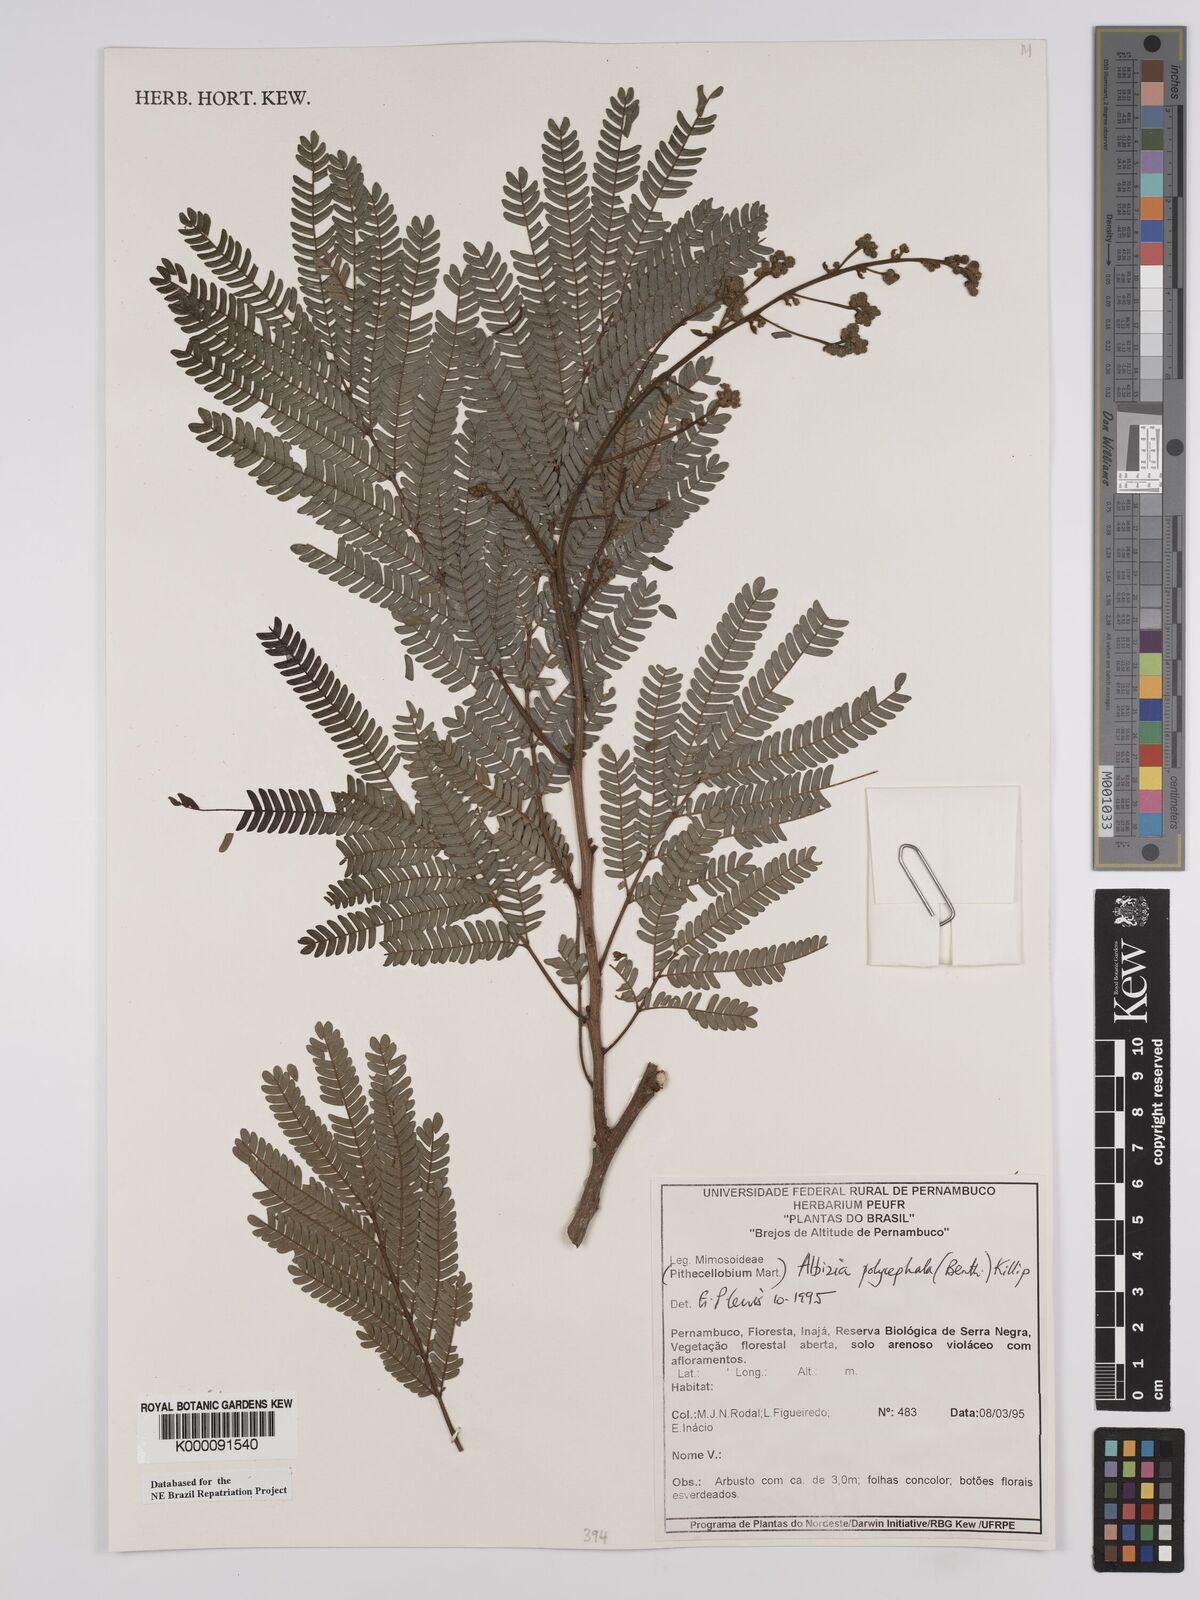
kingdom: Plantae
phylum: Tracheophyta
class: Magnoliopsida
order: Fabales
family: Fabaceae
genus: Albizia
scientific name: Albizia polycephala
